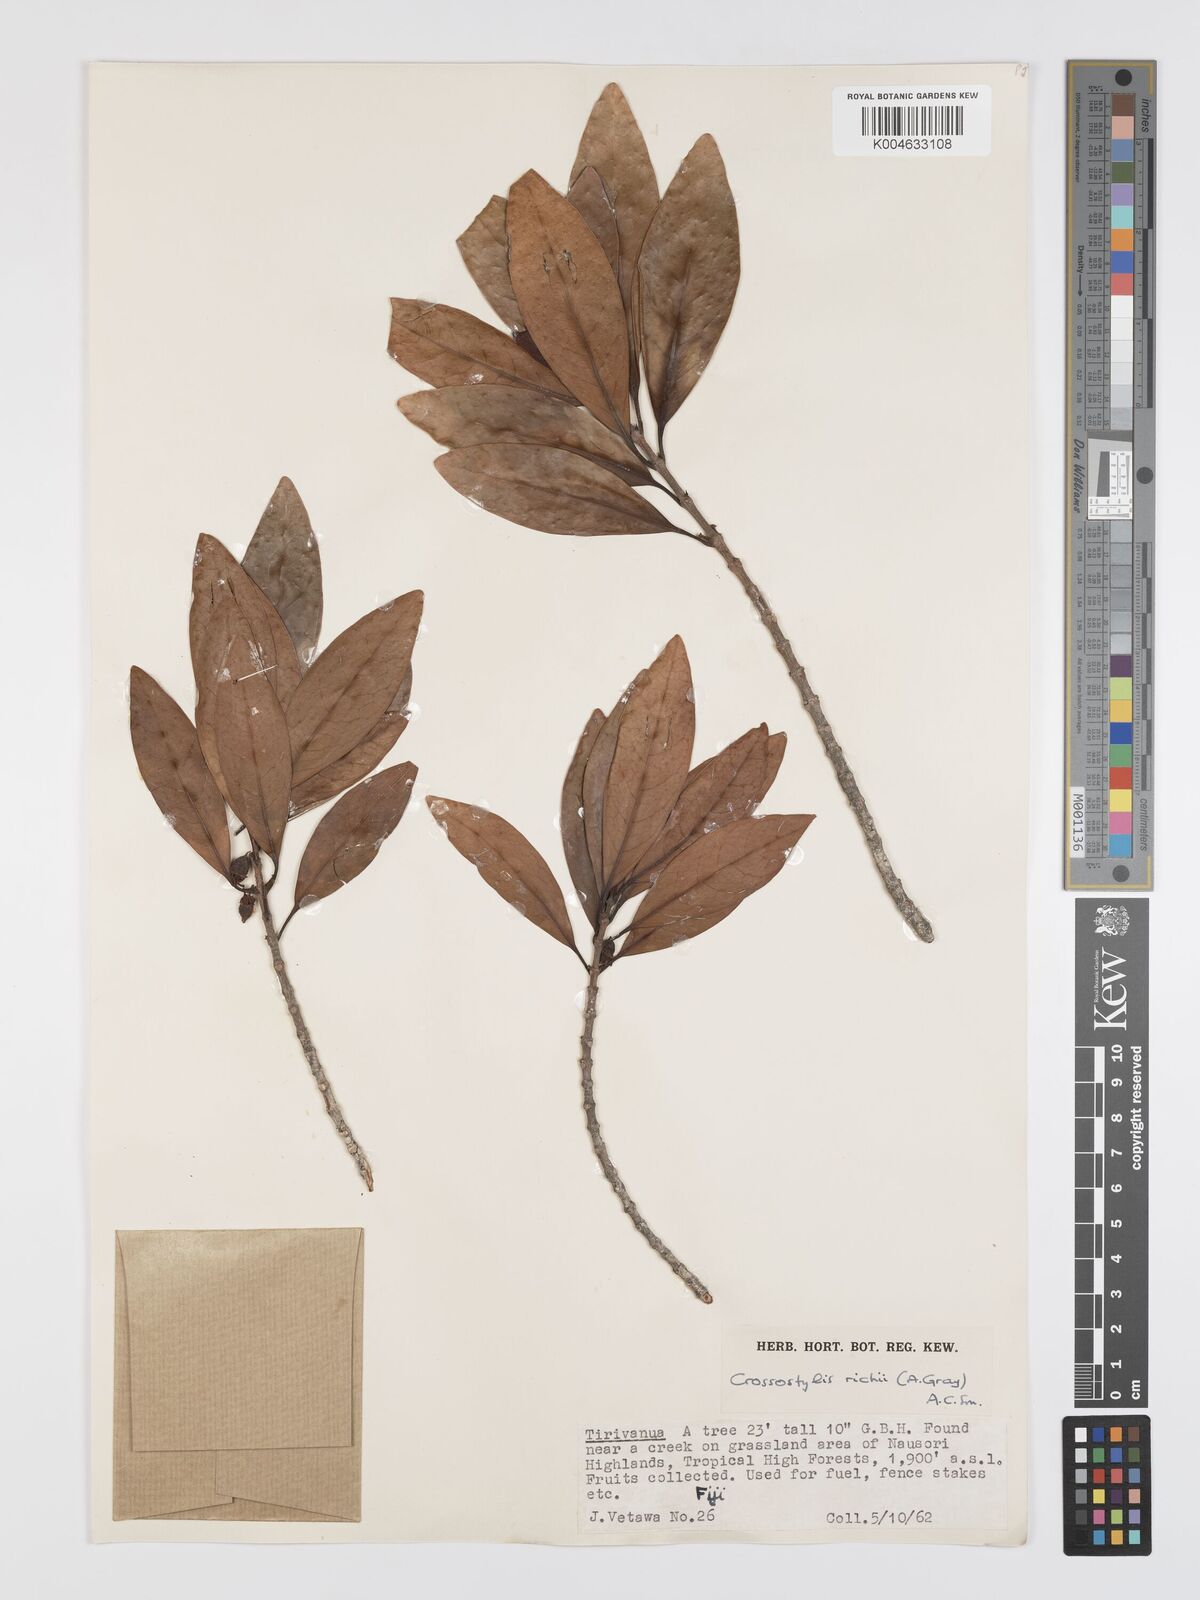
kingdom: Plantae
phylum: Tracheophyta
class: Magnoliopsida
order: Malpighiales
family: Rhizophoraceae
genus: Crossostylis
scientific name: Crossostylis richii
